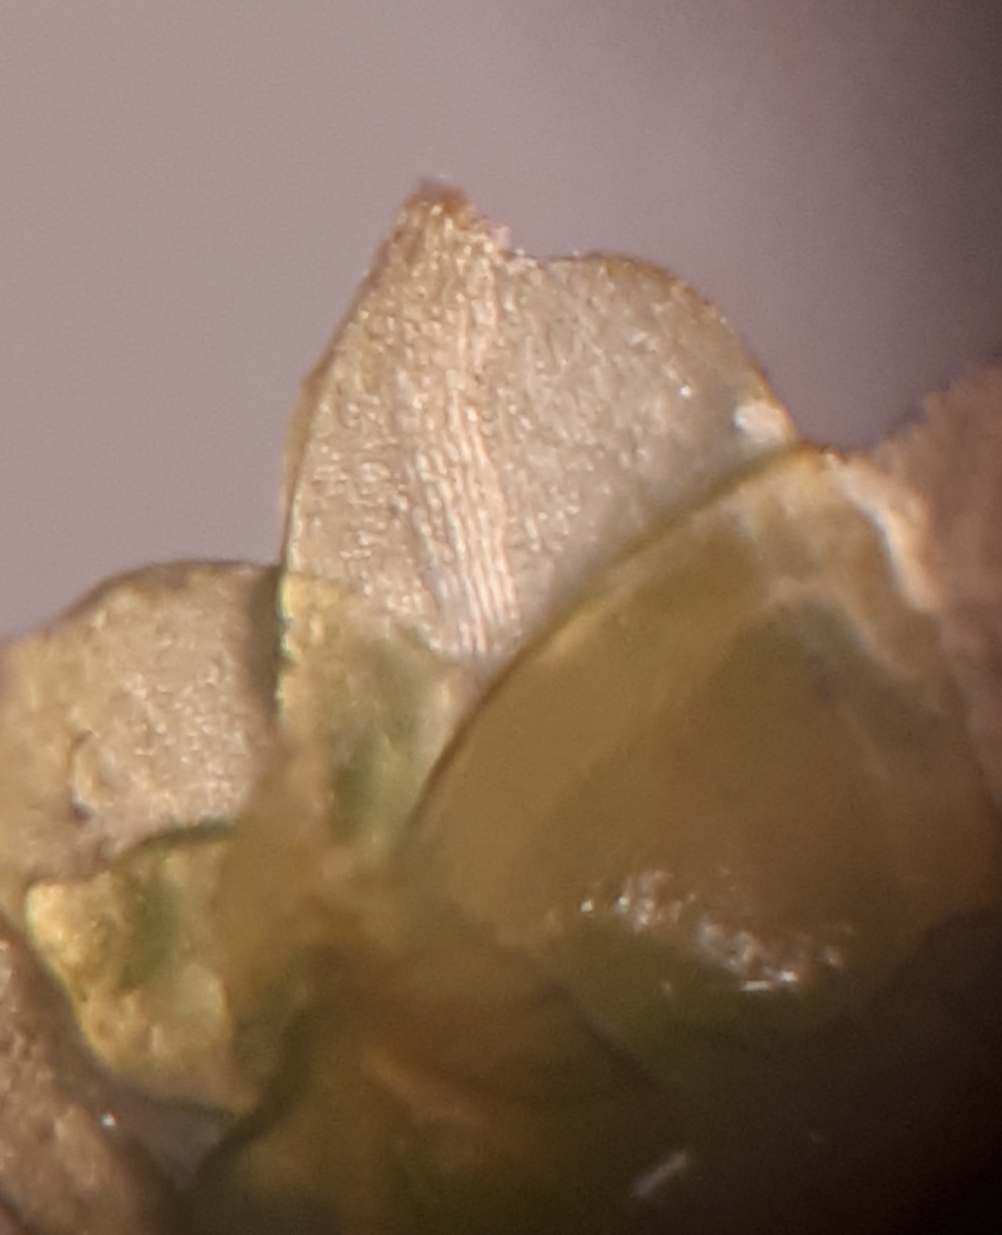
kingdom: Plantae
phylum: Marchantiophyta
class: Jungermanniopsida
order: Jungermanniales
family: Scapaniaceae
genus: Diplophyllum
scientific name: Diplophyllum albicans
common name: Stribet dobbeltblad
